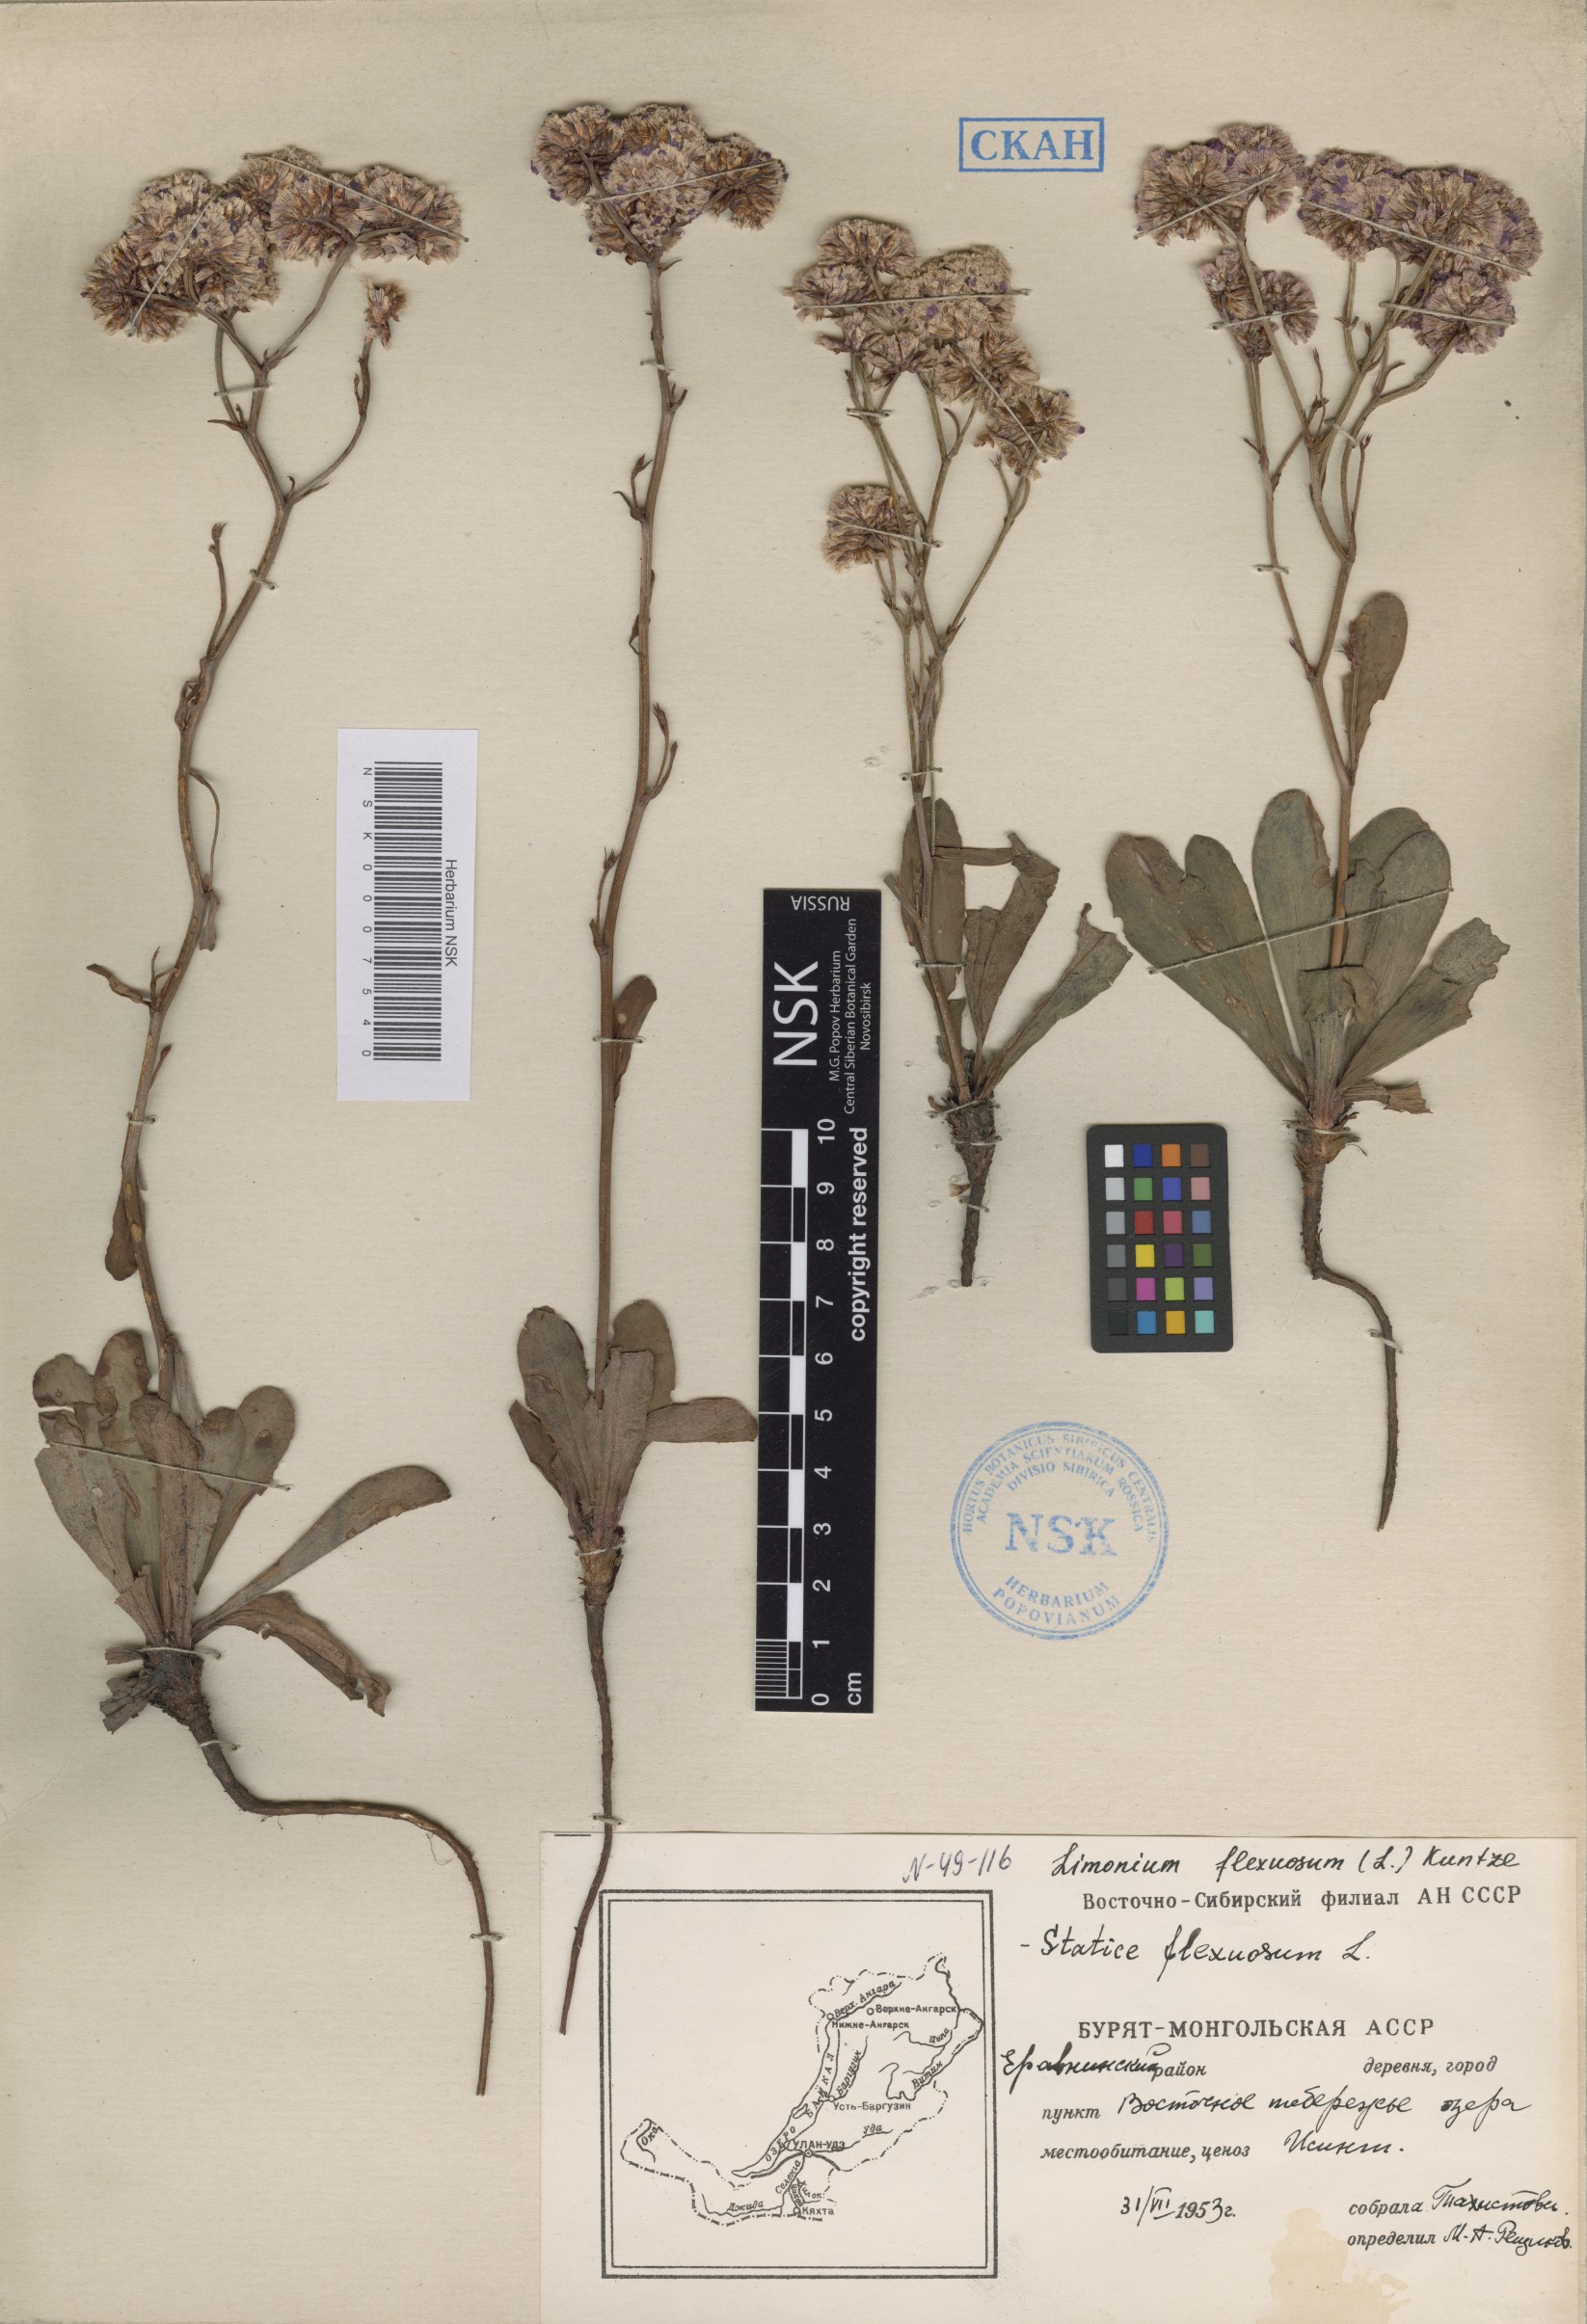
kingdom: Plantae
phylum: Tracheophyta
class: Magnoliopsida
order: Caryophyllales
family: Plumbaginaceae
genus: Limonium
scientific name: Limonium flexuosum
